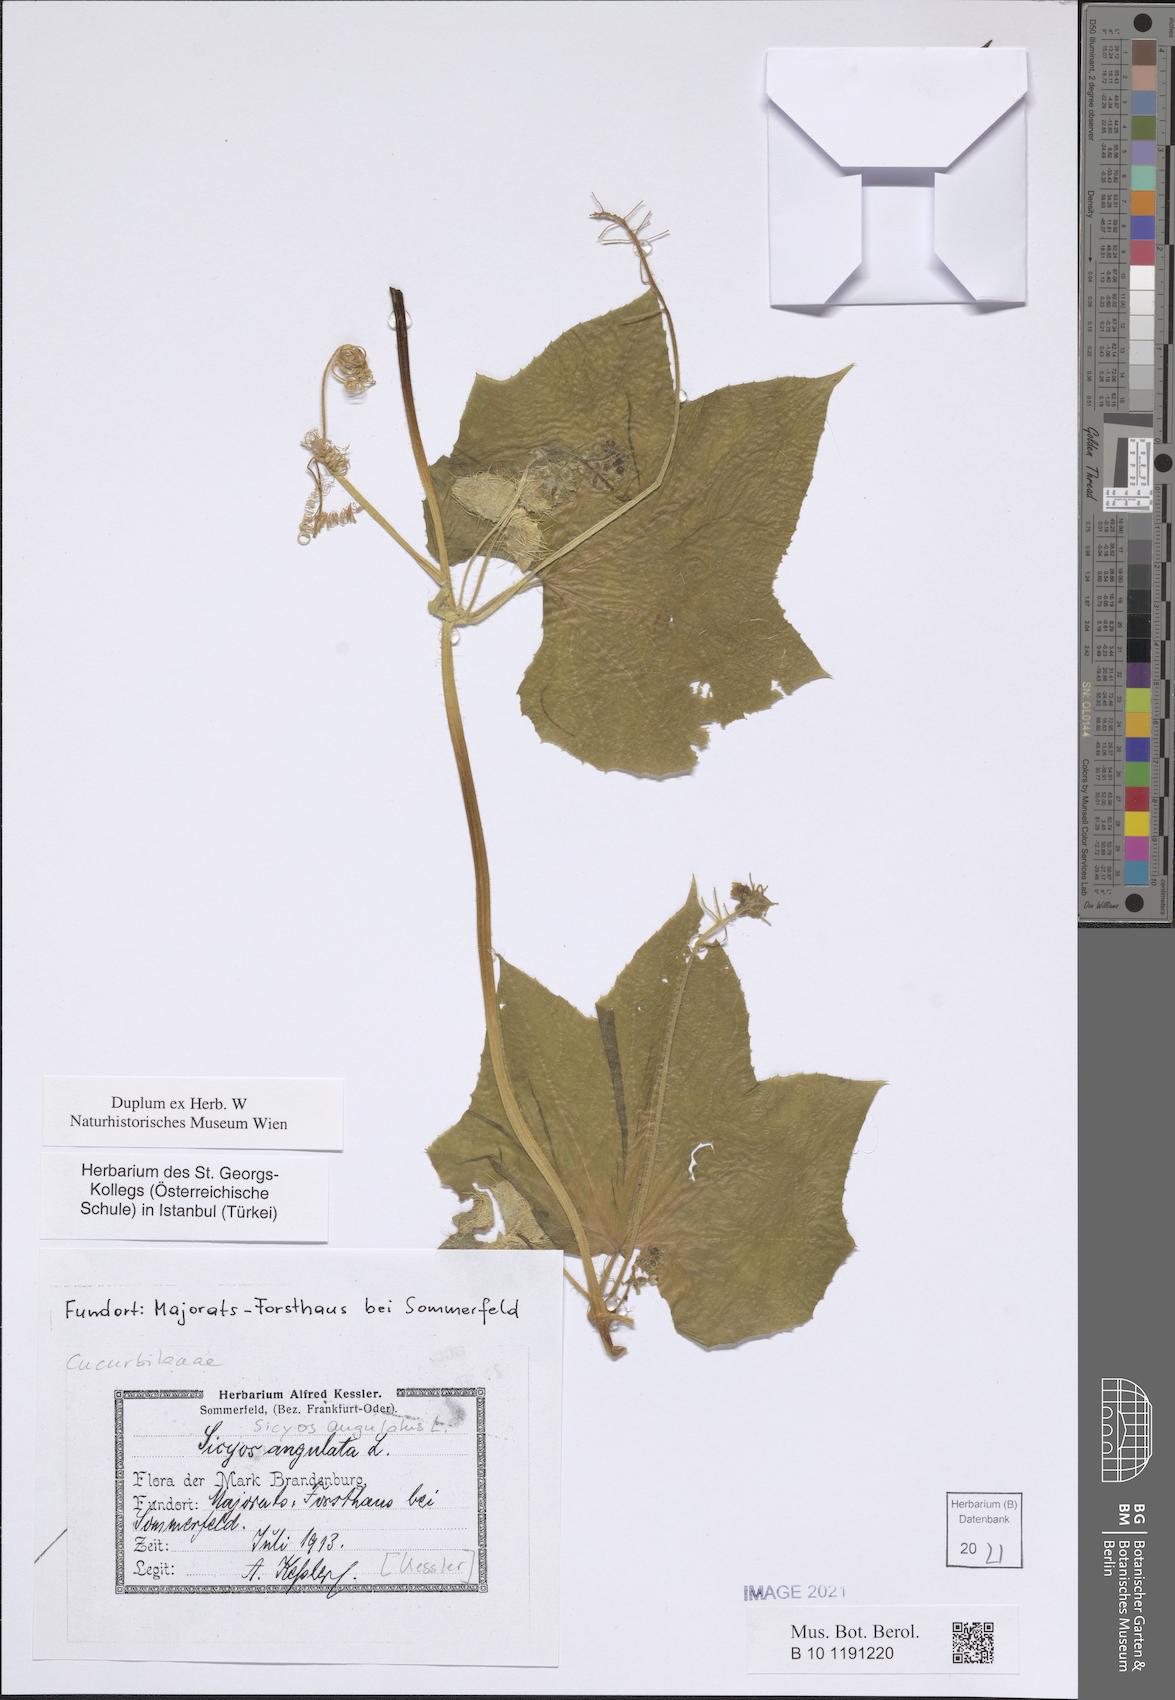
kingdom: Plantae
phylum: Tracheophyta
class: Magnoliopsida
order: Cucurbitales
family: Cucurbitaceae
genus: Sicyos
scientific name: Sicyos angulatus
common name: Angled burr cucumber
